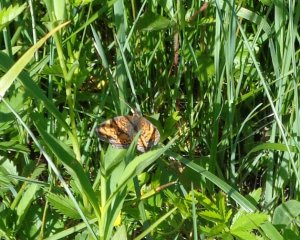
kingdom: Animalia
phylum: Arthropoda
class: Insecta
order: Lepidoptera
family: Nymphalidae
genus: Phyciodes
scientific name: Phyciodes tharos
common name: Pearl Crescent
